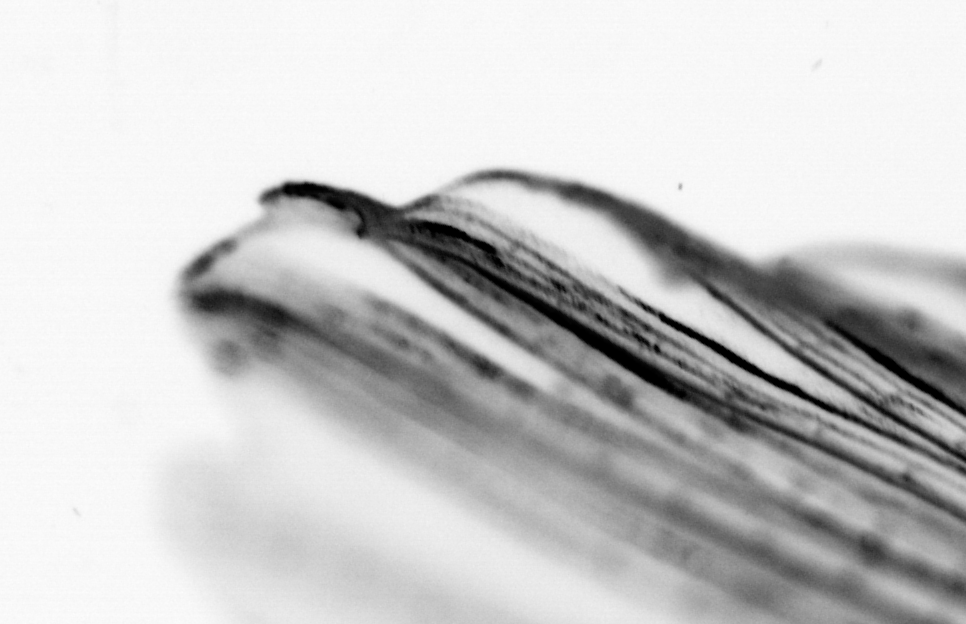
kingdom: Animalia
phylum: Chordata
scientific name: Chordata
